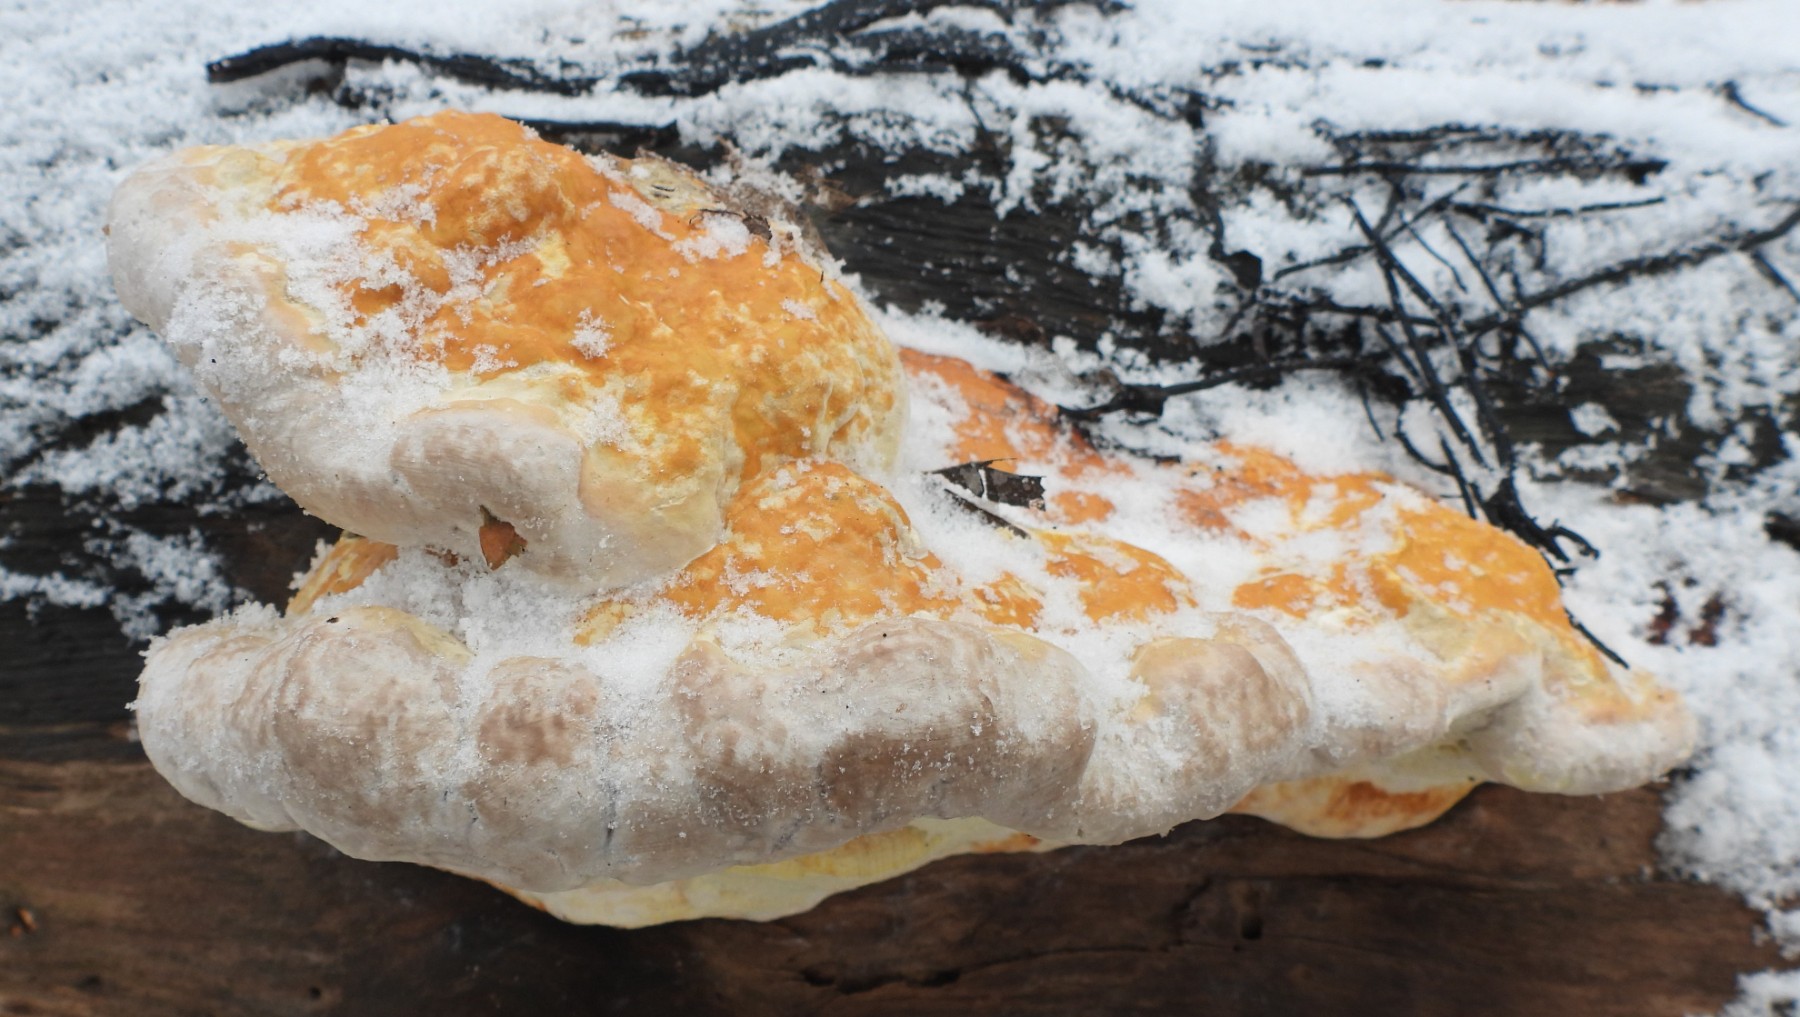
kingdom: Fungi
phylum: Basidiomycota
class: Agaricomycetes
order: Polyporales
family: Fomitopsidaceae
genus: Fomitopsis
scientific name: Fomitopsis pinicola
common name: randbæltet hovporesvamp
